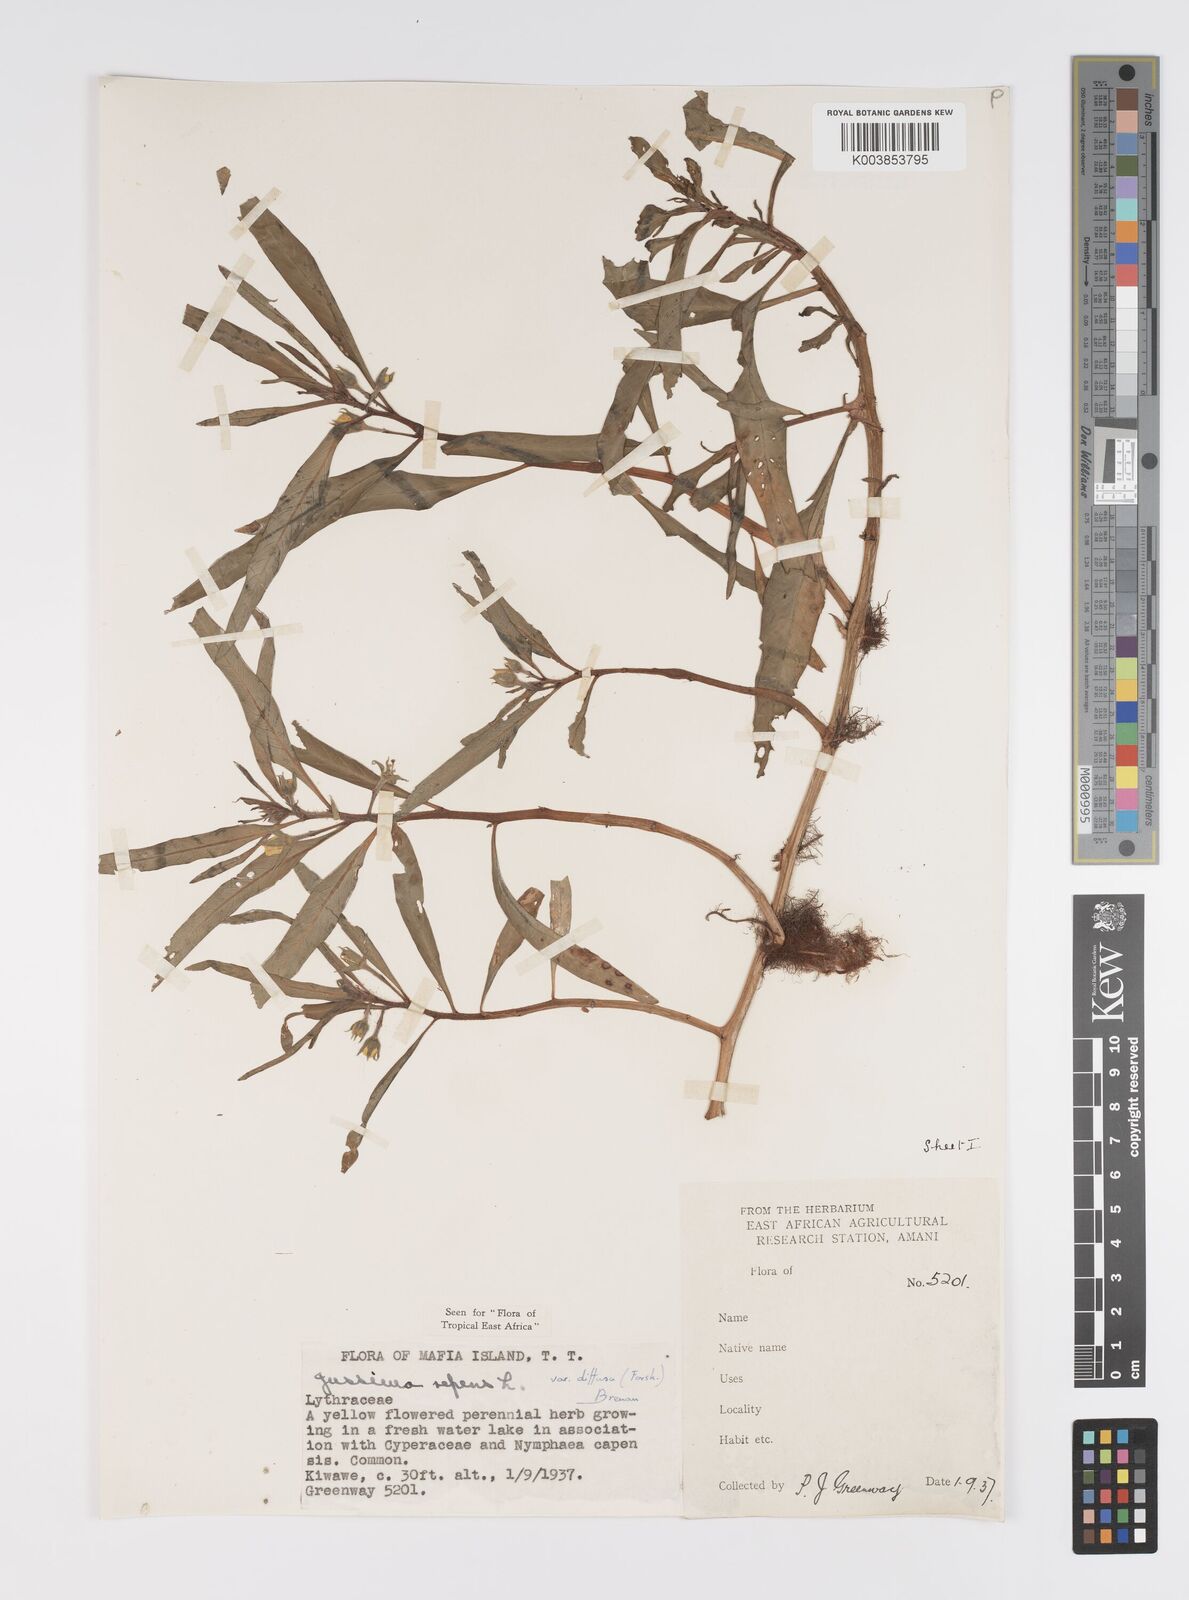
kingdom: Plantae
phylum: Tracheophyta
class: Magnoliopsida
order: Myrtales
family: Onagraceae
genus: Ludwigia
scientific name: Ludwigia repens
